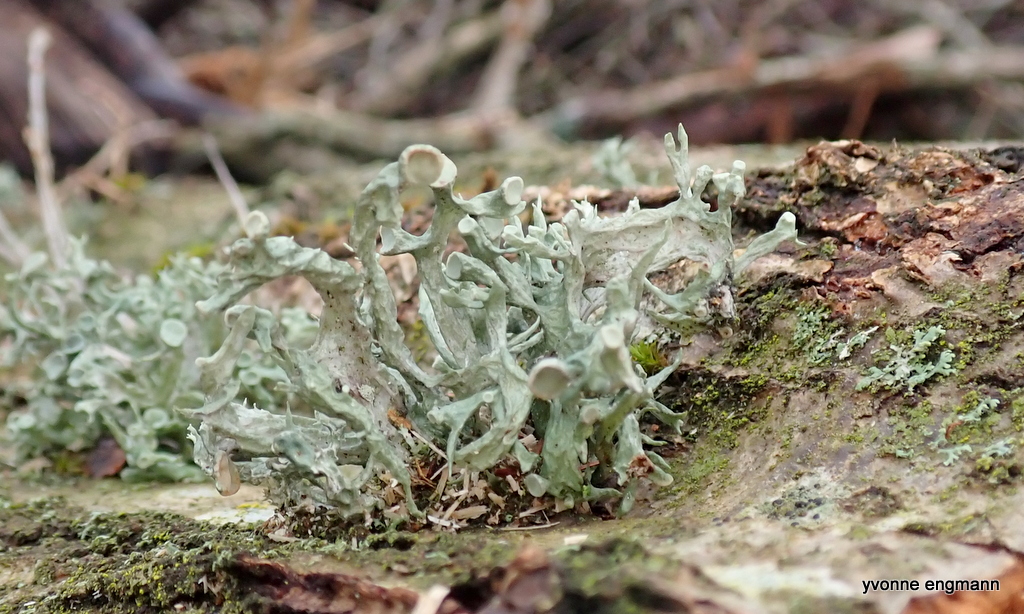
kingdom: Fungi
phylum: Ascomycota
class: Lecanoromycetes
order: Lecanorales
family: Ramalinaceae
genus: Ramalina
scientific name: Ramalina fastigiata
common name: tue-grenlav
